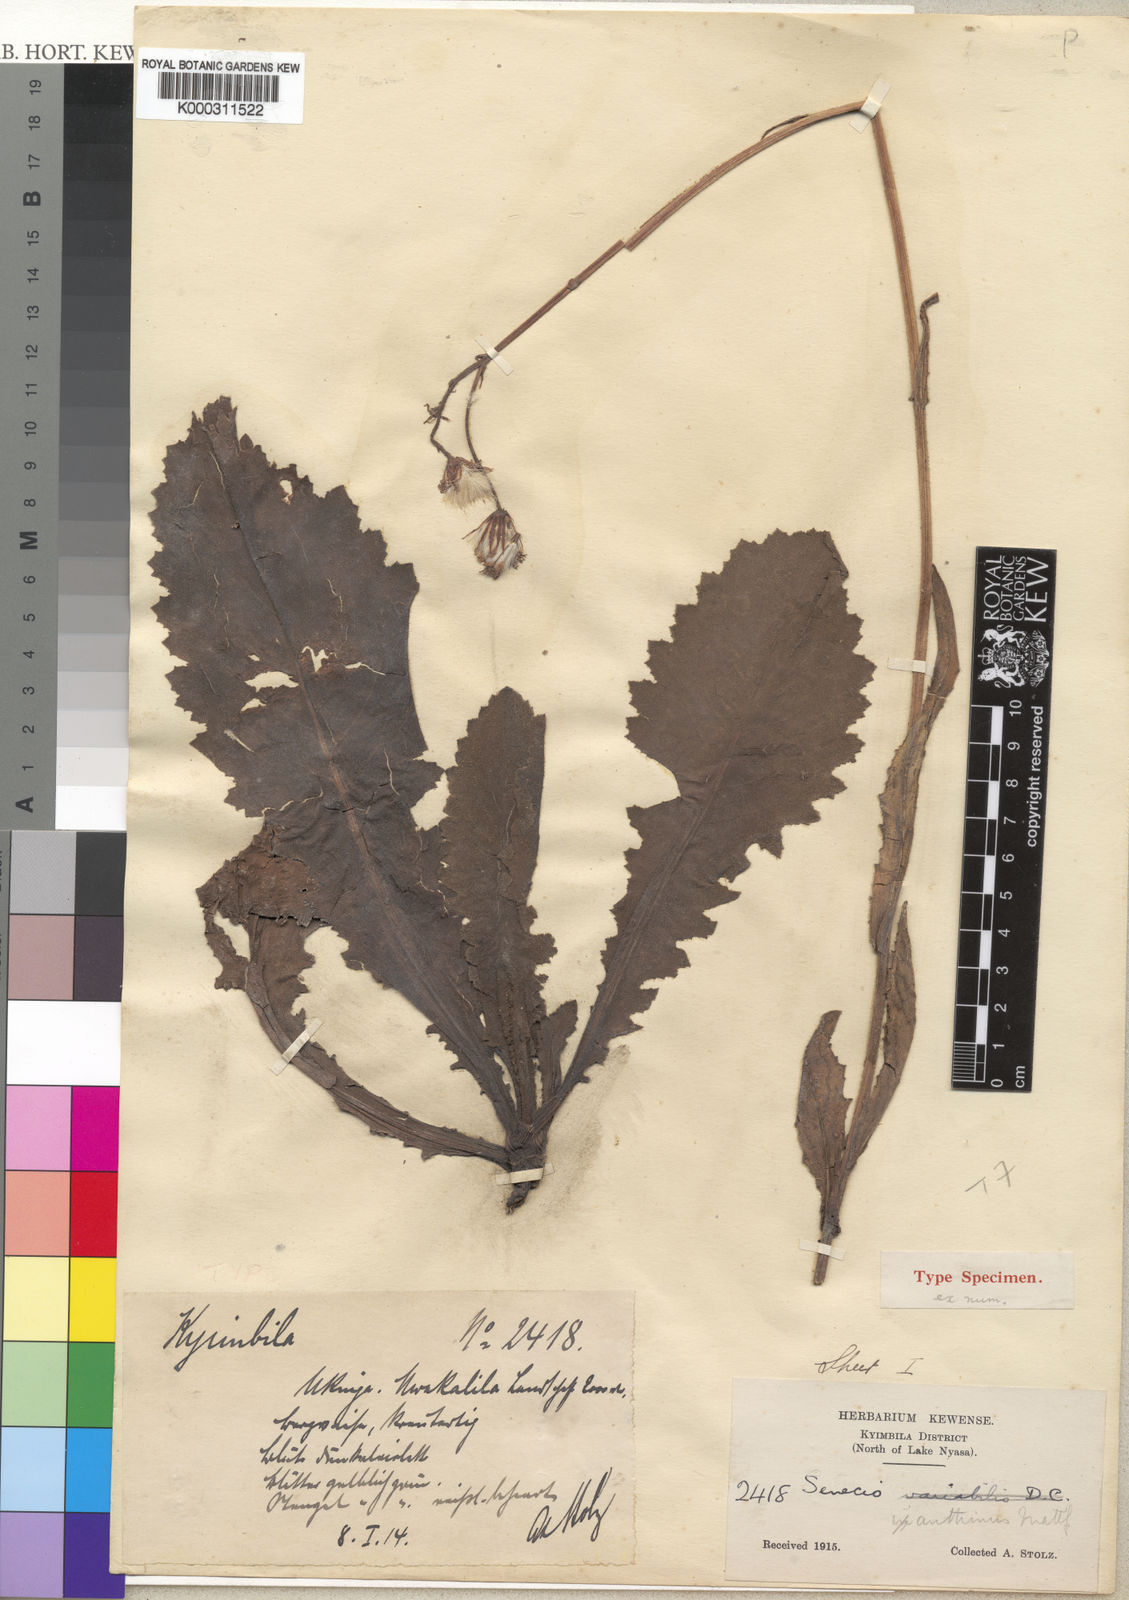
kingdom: Plantae
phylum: Tracheophyta
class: Magnoliopsida
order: Asterales
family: Asteraceae
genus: Senecio
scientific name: Senecio
